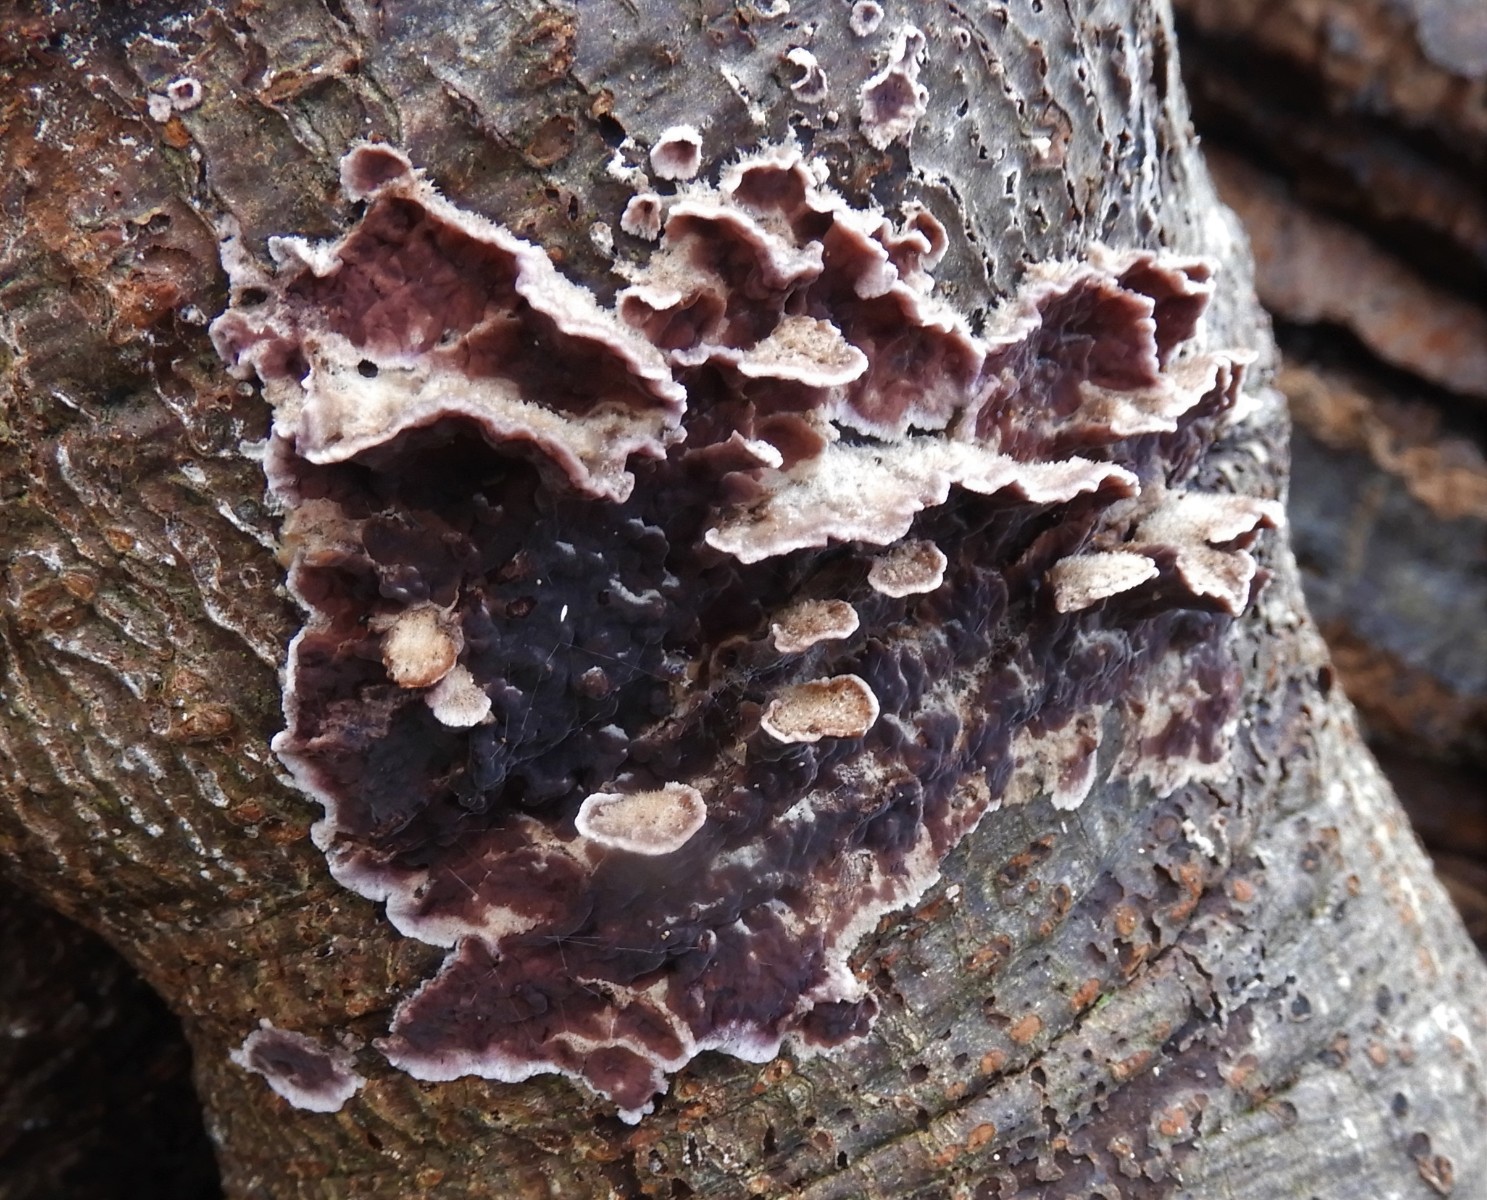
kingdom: Fungi
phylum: Basidiomycota
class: Agaricomycetes
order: Agaricales
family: Cyphellaceae
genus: Chondrostereum
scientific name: Chondrostereum purpureum
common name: purpurlædersvamp
